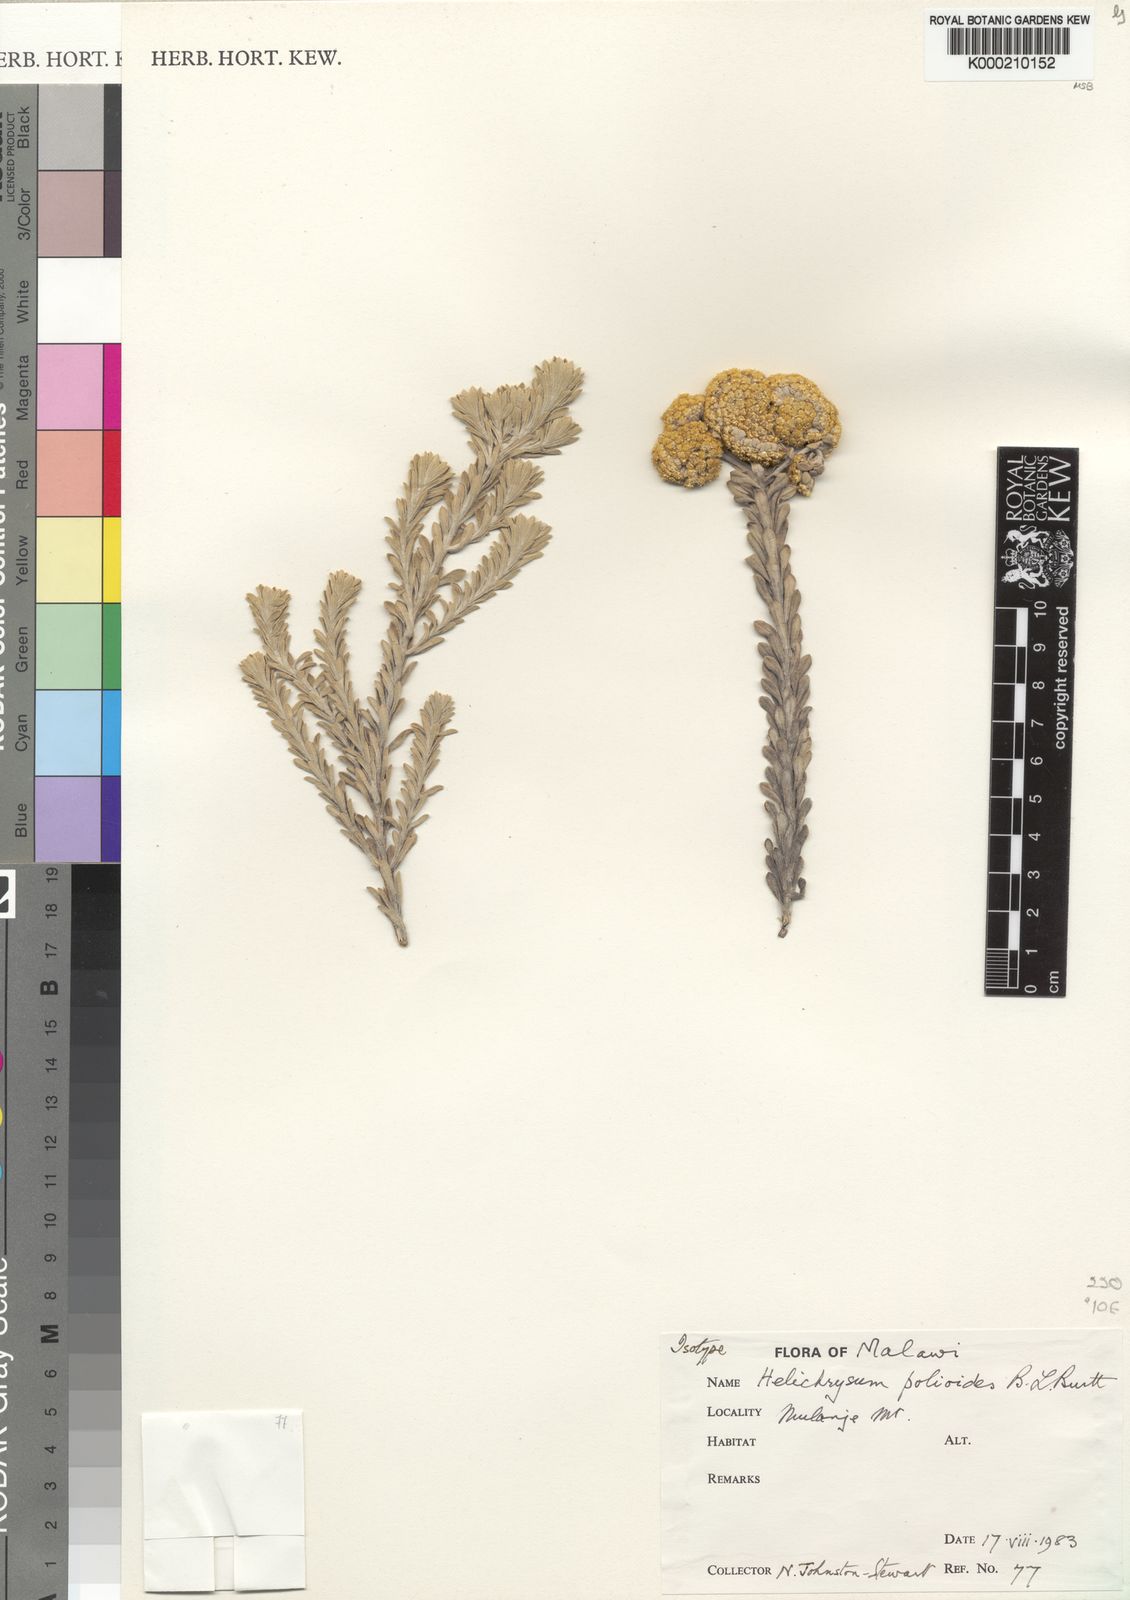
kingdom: Plantae
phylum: Tracheophyta
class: Magnoliopsida
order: Asterales
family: Asteraceae
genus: Helichrysum
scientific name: Helichrysum polioides
